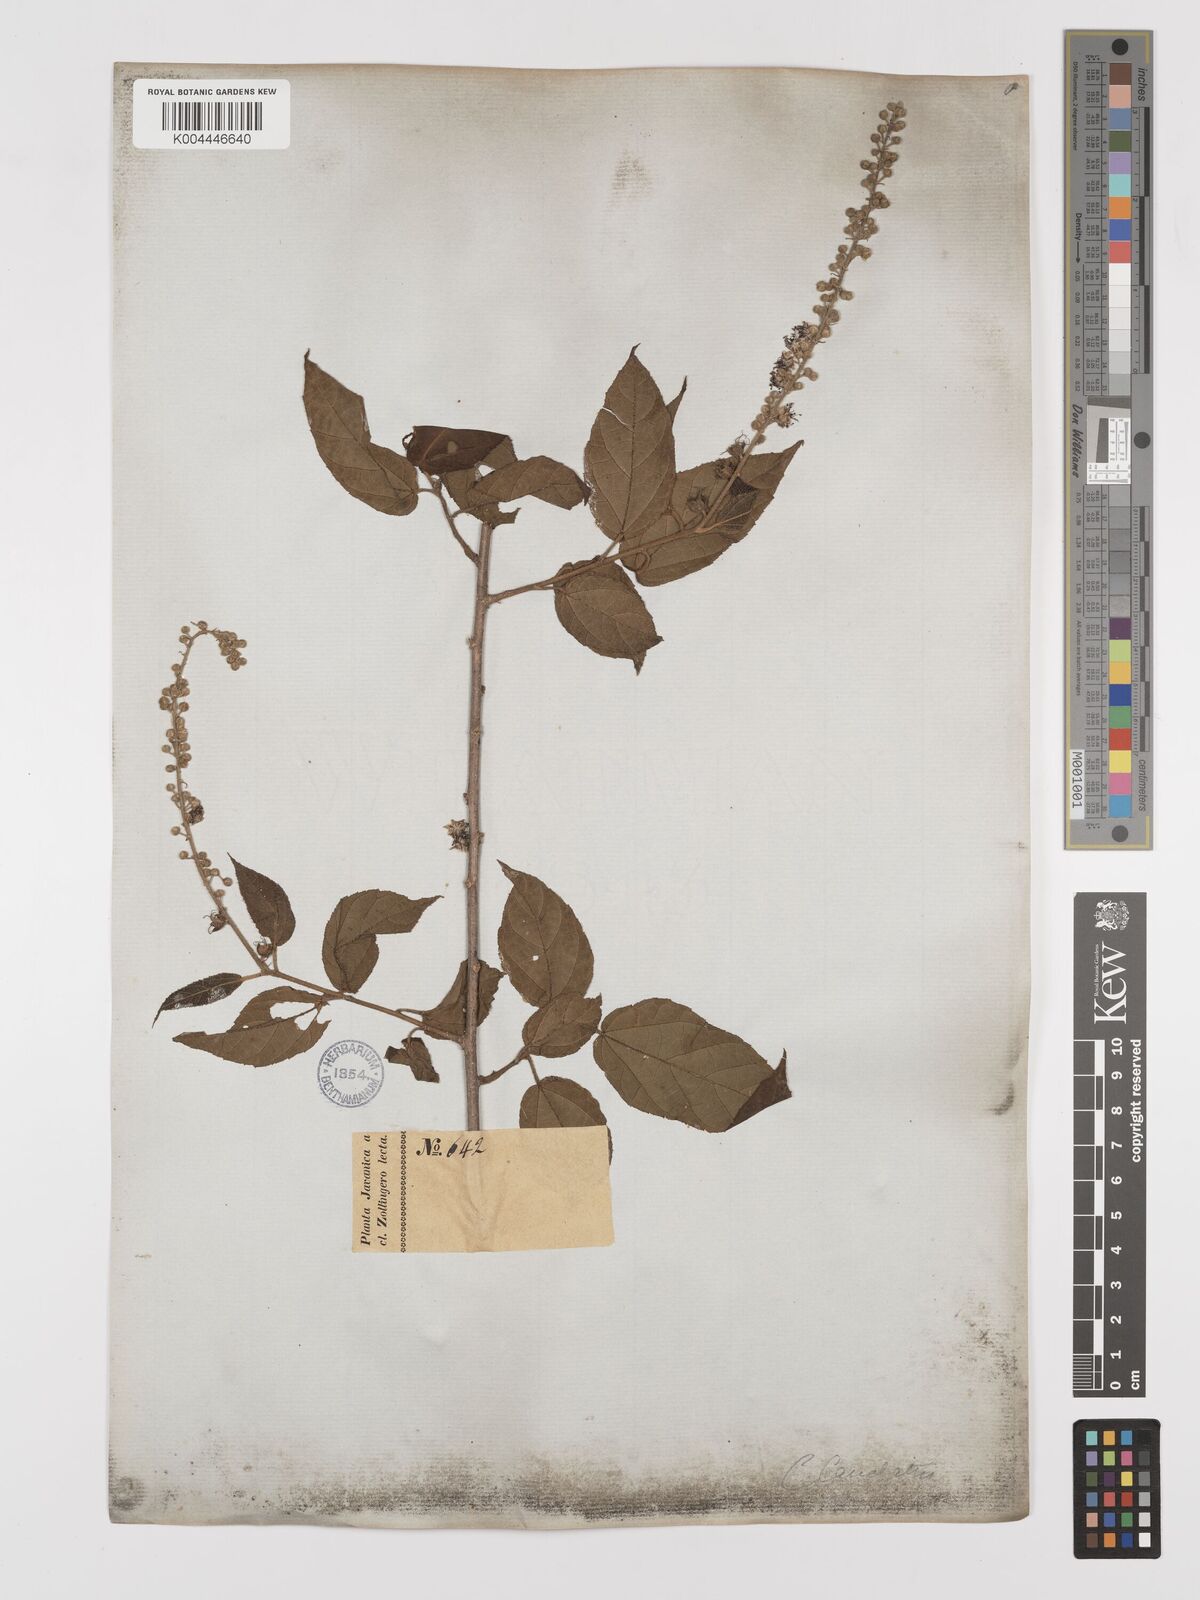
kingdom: Plantae
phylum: Tracheophyta
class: Magnoliopsida
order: Malpighiales
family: Euphorbiaceae
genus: Croton
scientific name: Croton caudatus
